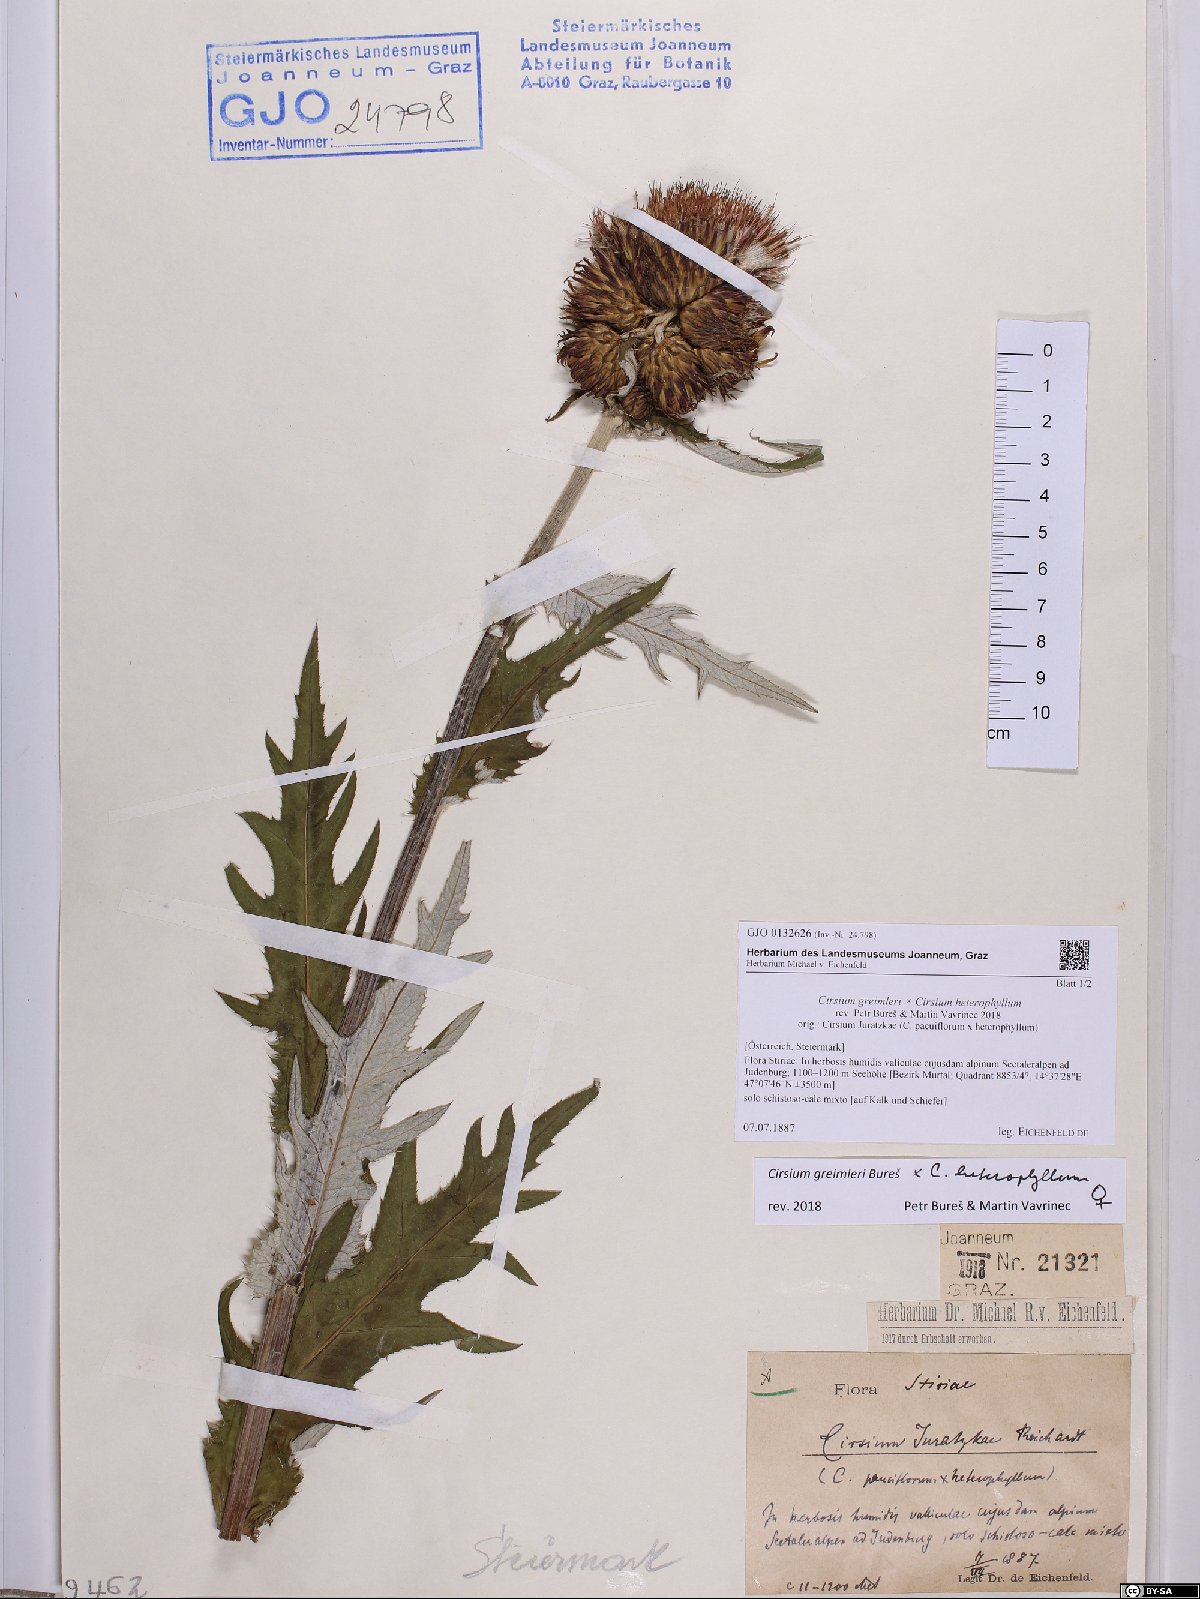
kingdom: Plantae
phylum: Tracheophyta
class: Magnoliopsida
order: Asterales
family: Asteraceae
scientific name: Asteraceae
